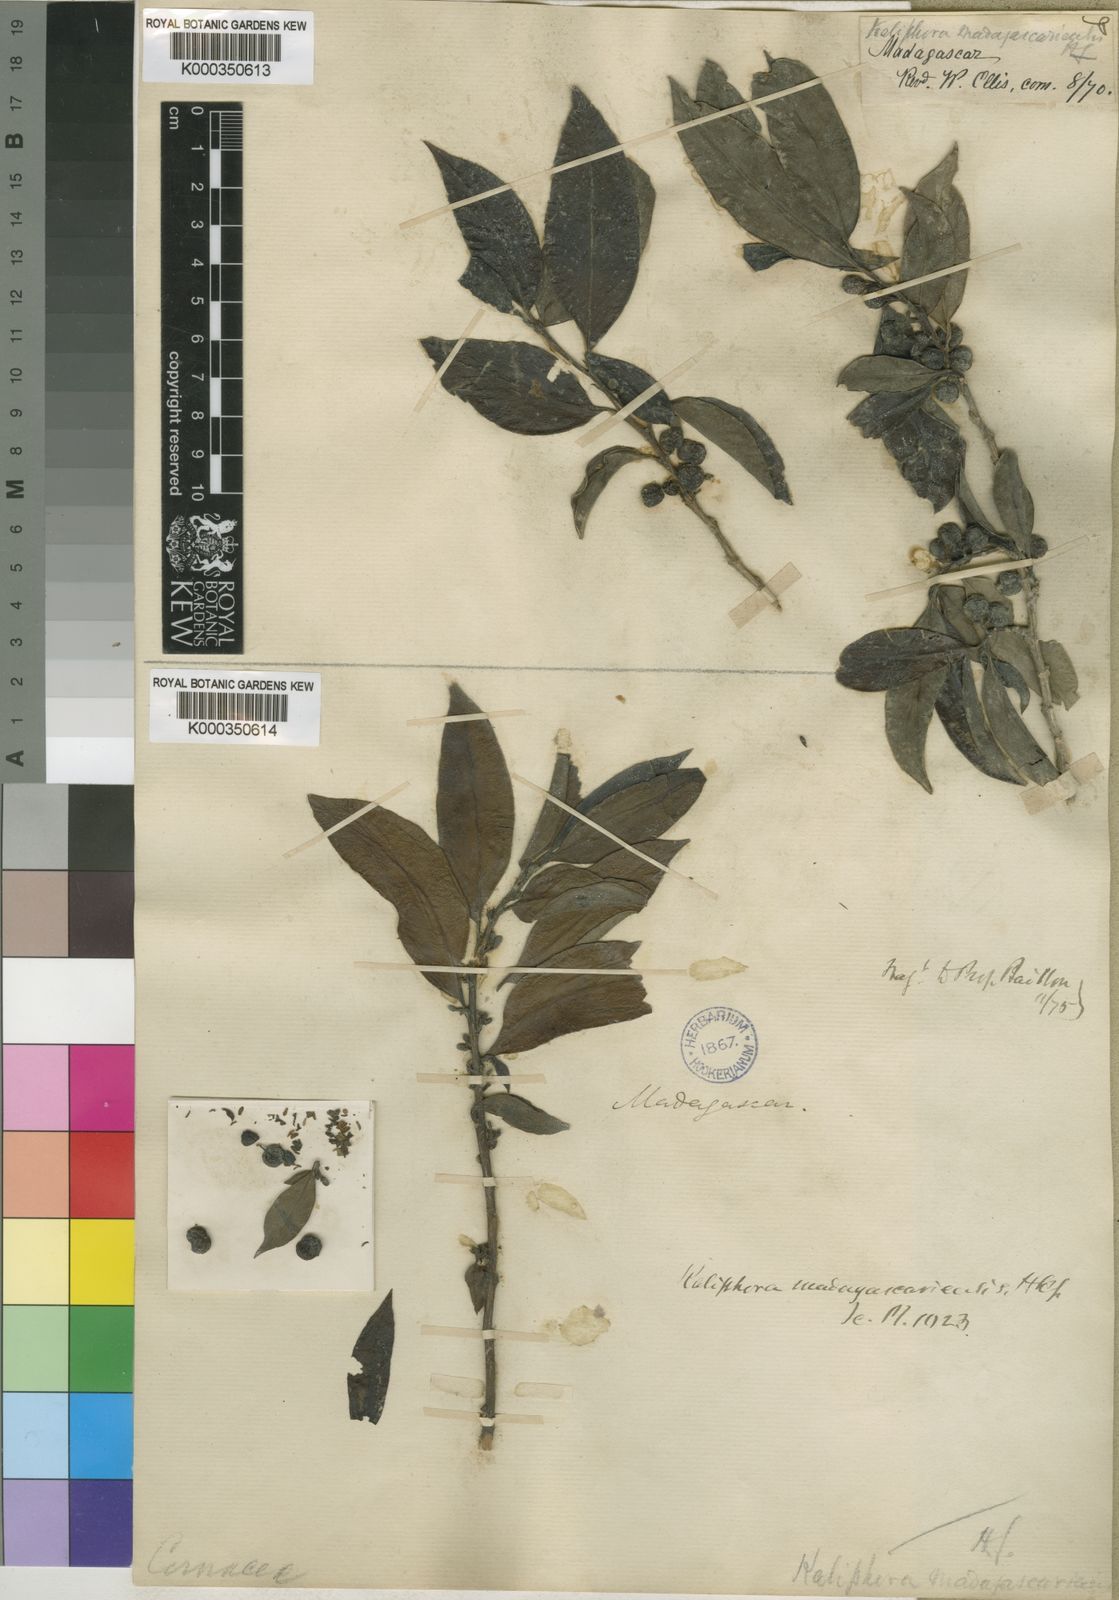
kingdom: Plantae
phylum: Tracheophyta
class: Magnoliopsida
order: Solanales
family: Montiniaceae
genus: Kaliphora
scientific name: Kaliphora madagascariensis
